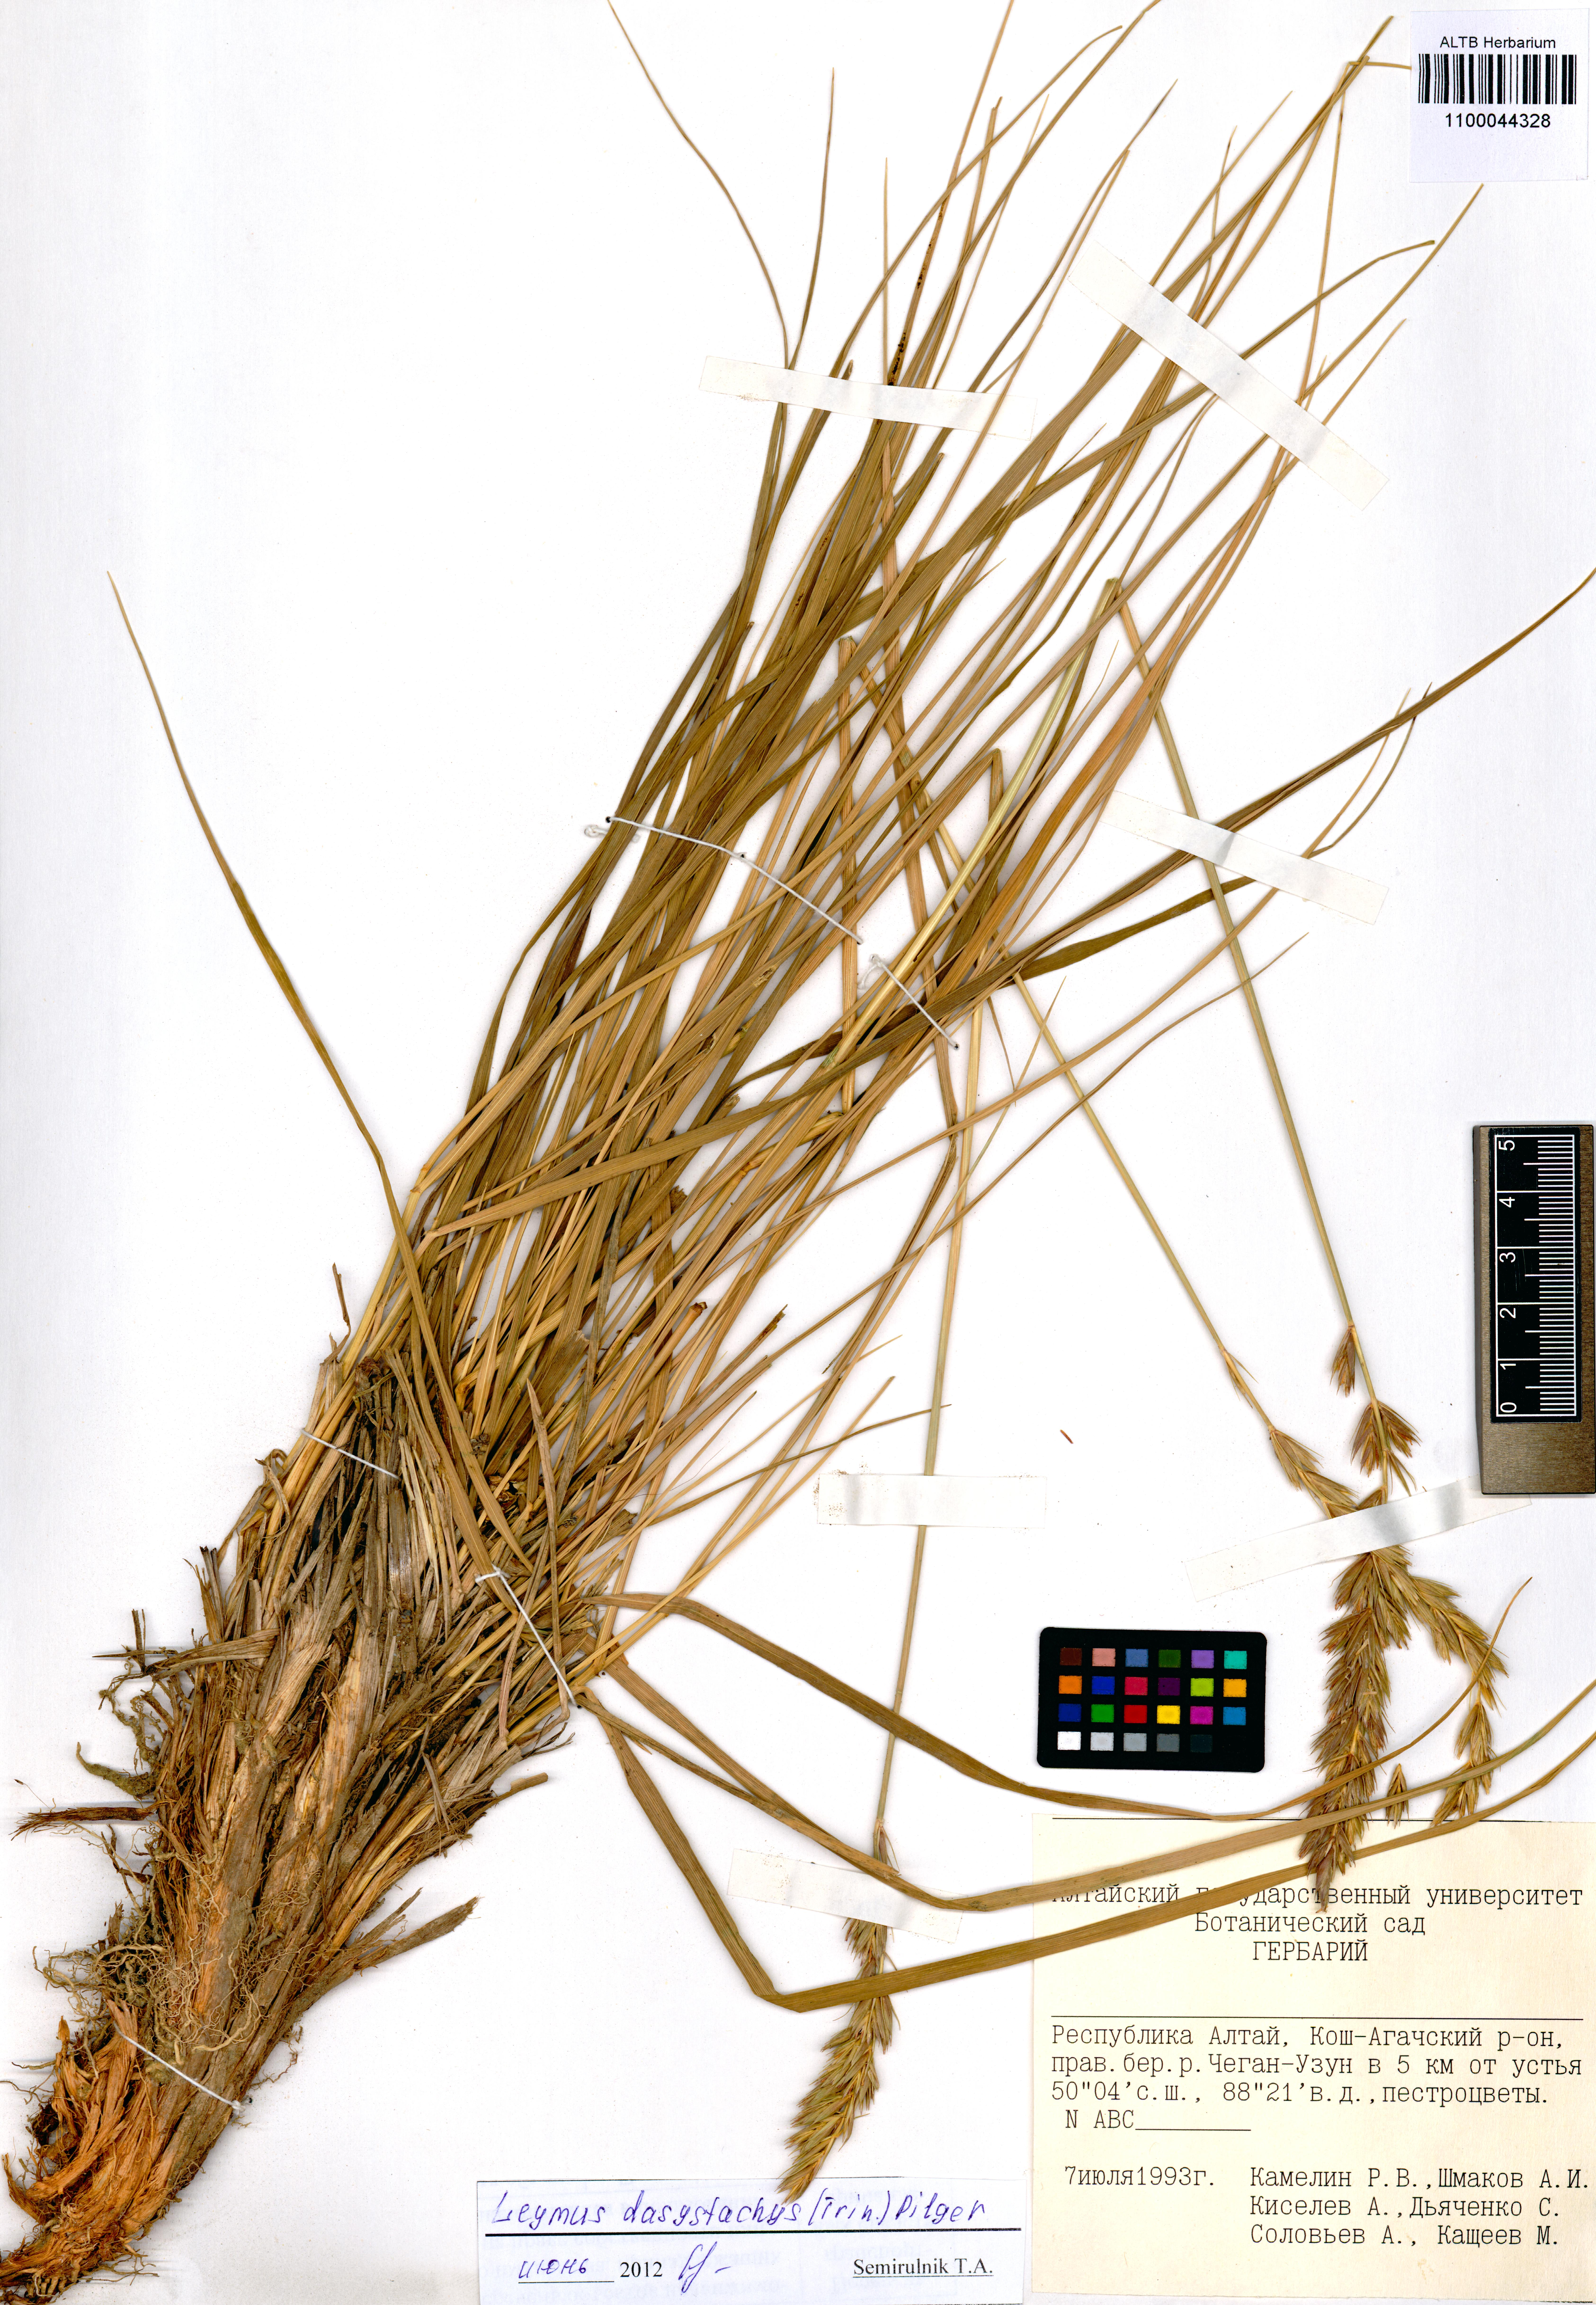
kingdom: Plantae
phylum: Tracheophyta
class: Liliopsida
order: Poales
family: Poaceae
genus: Leymus
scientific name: Leymus secalinus
